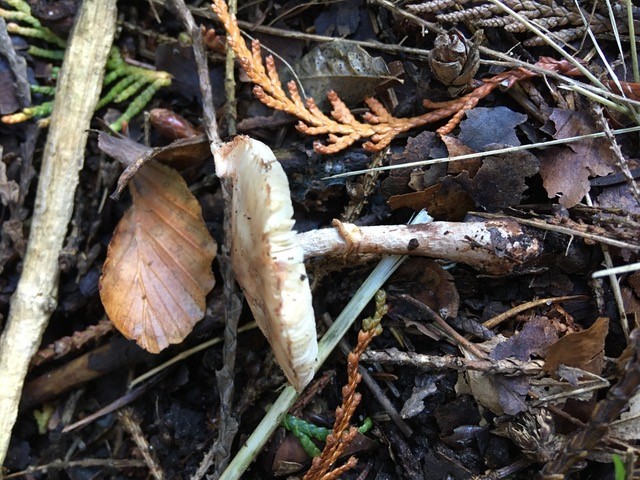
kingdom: Fungi
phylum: Basidiomycota
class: Agaricomycetes
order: Agaricales
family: Agaricaceae
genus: Leucoagaricus
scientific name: Leucoagaricus badhamii
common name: rødmende silkehat
